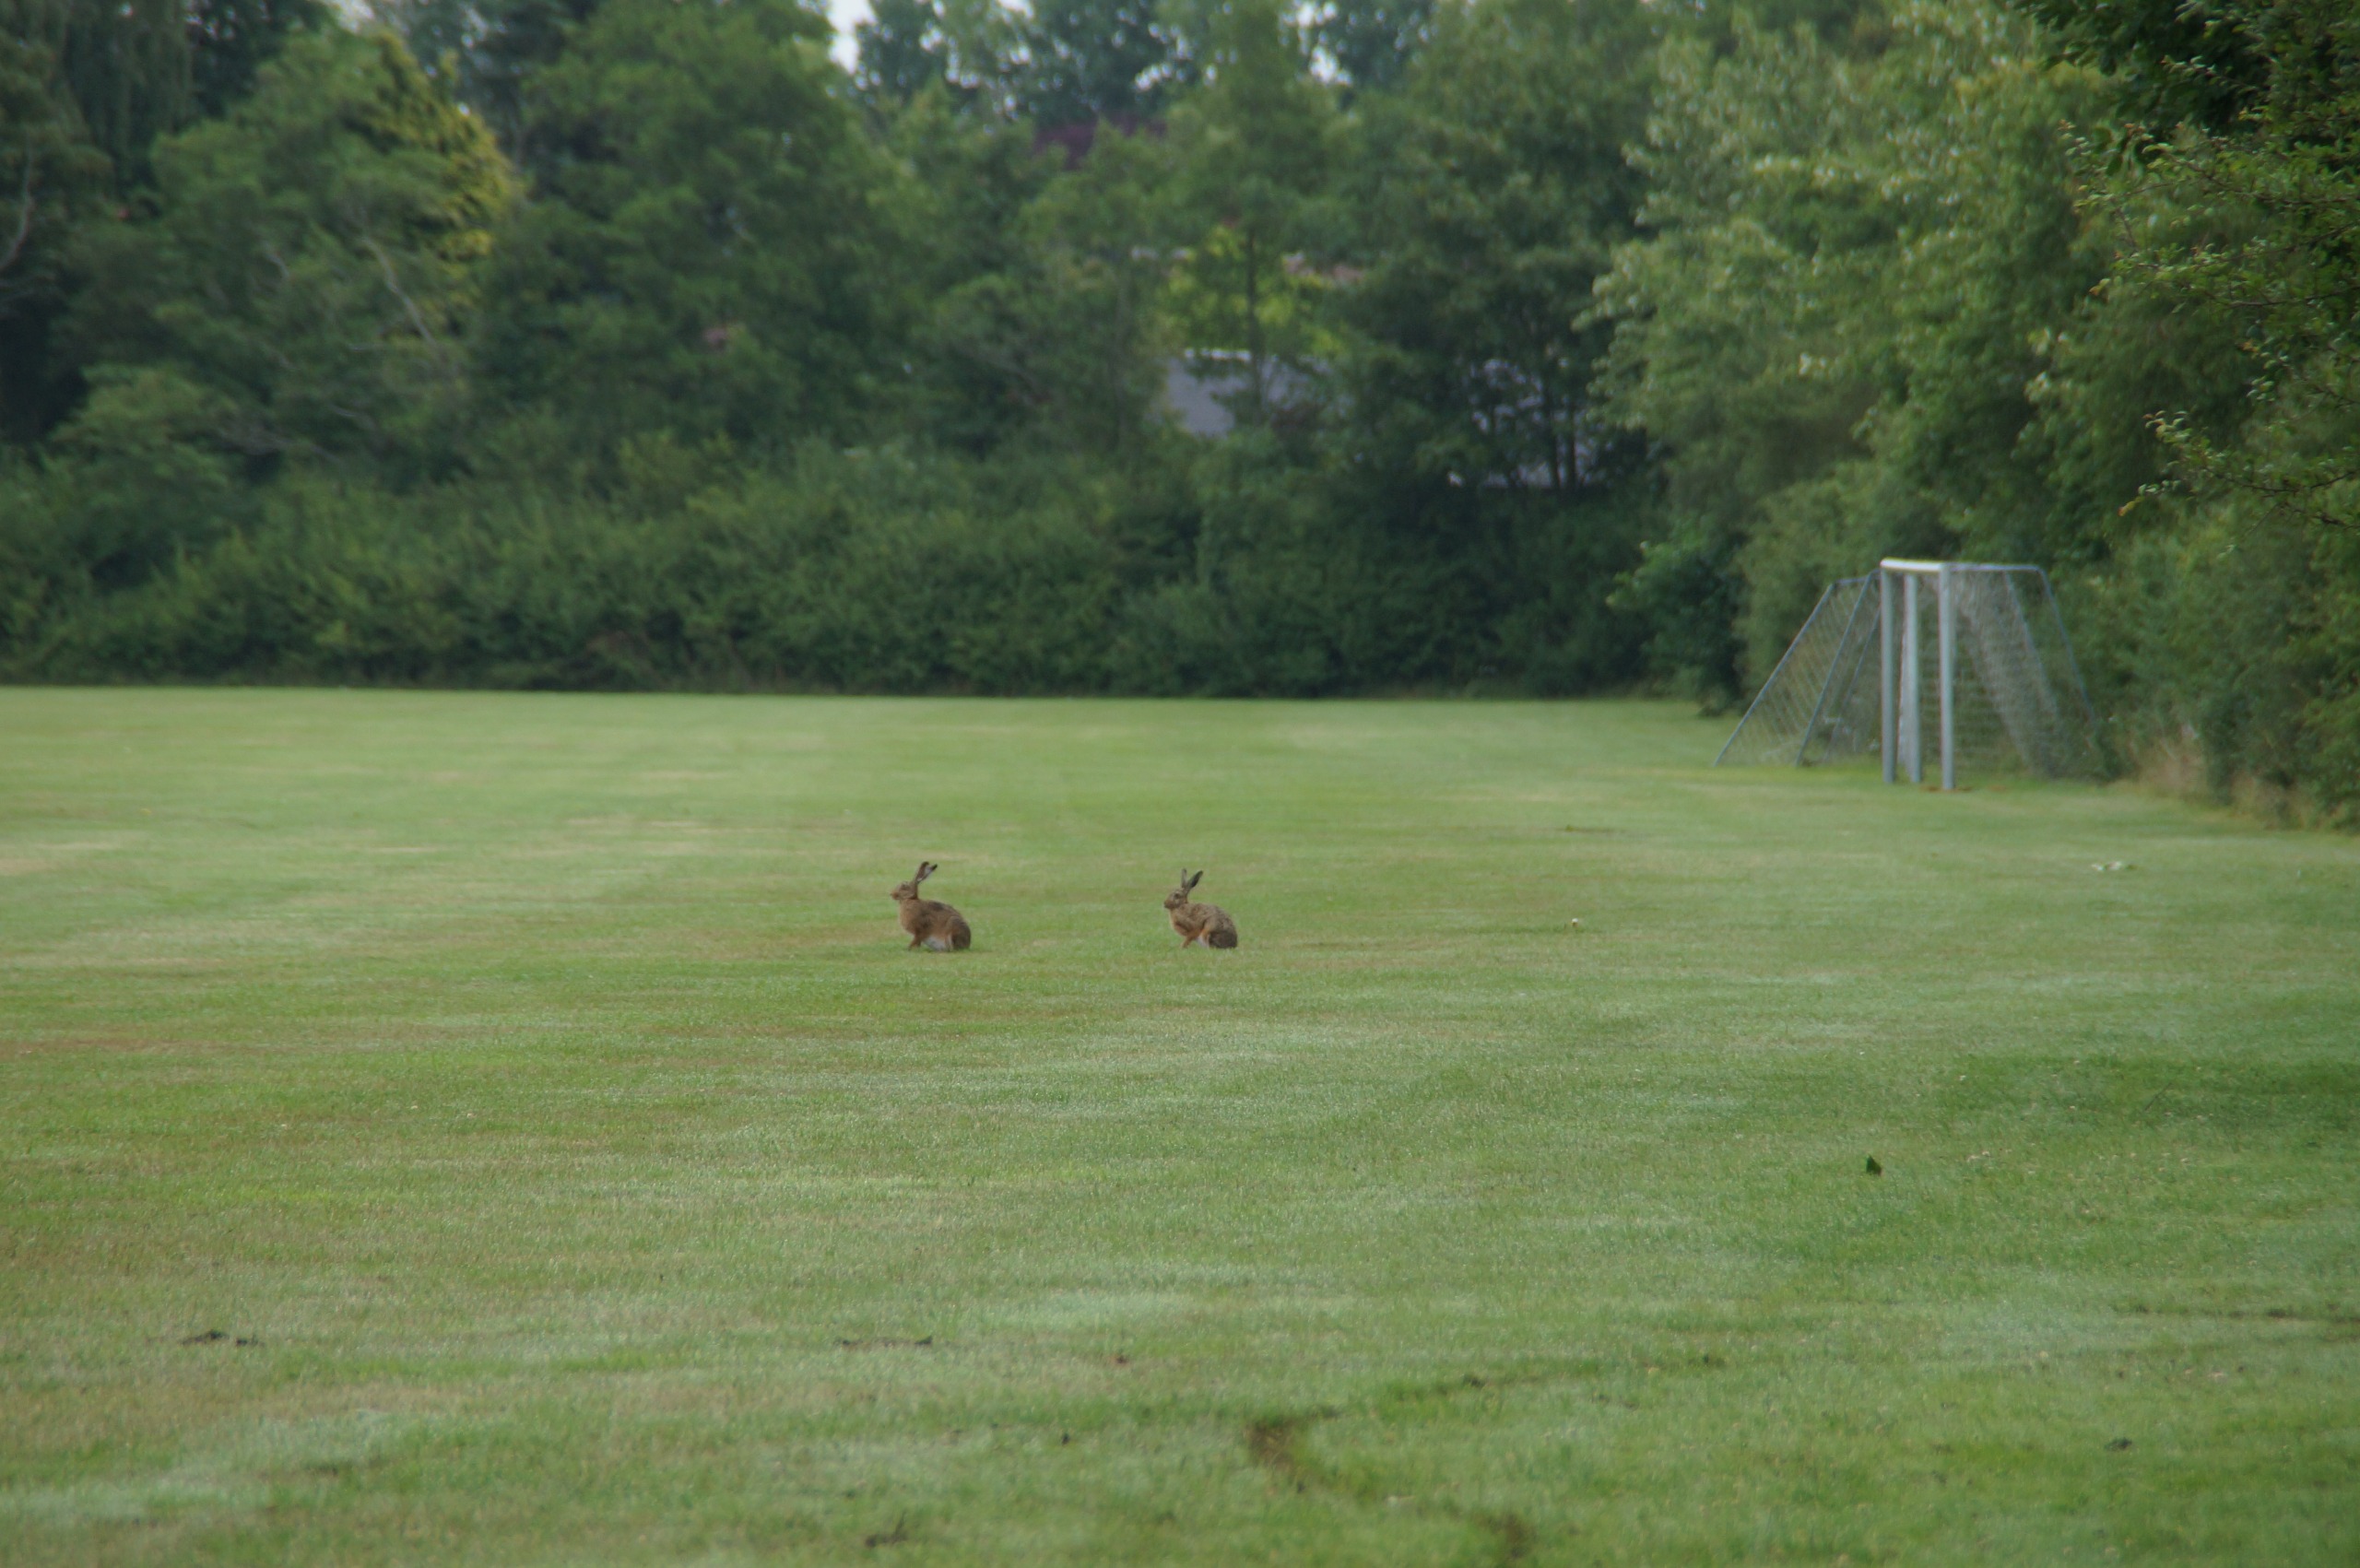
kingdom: Animalia
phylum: Chordata
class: Mammalia
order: Lagomorpha
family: Leporidae
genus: Lepus
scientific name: Lepus europaeus
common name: Hare
